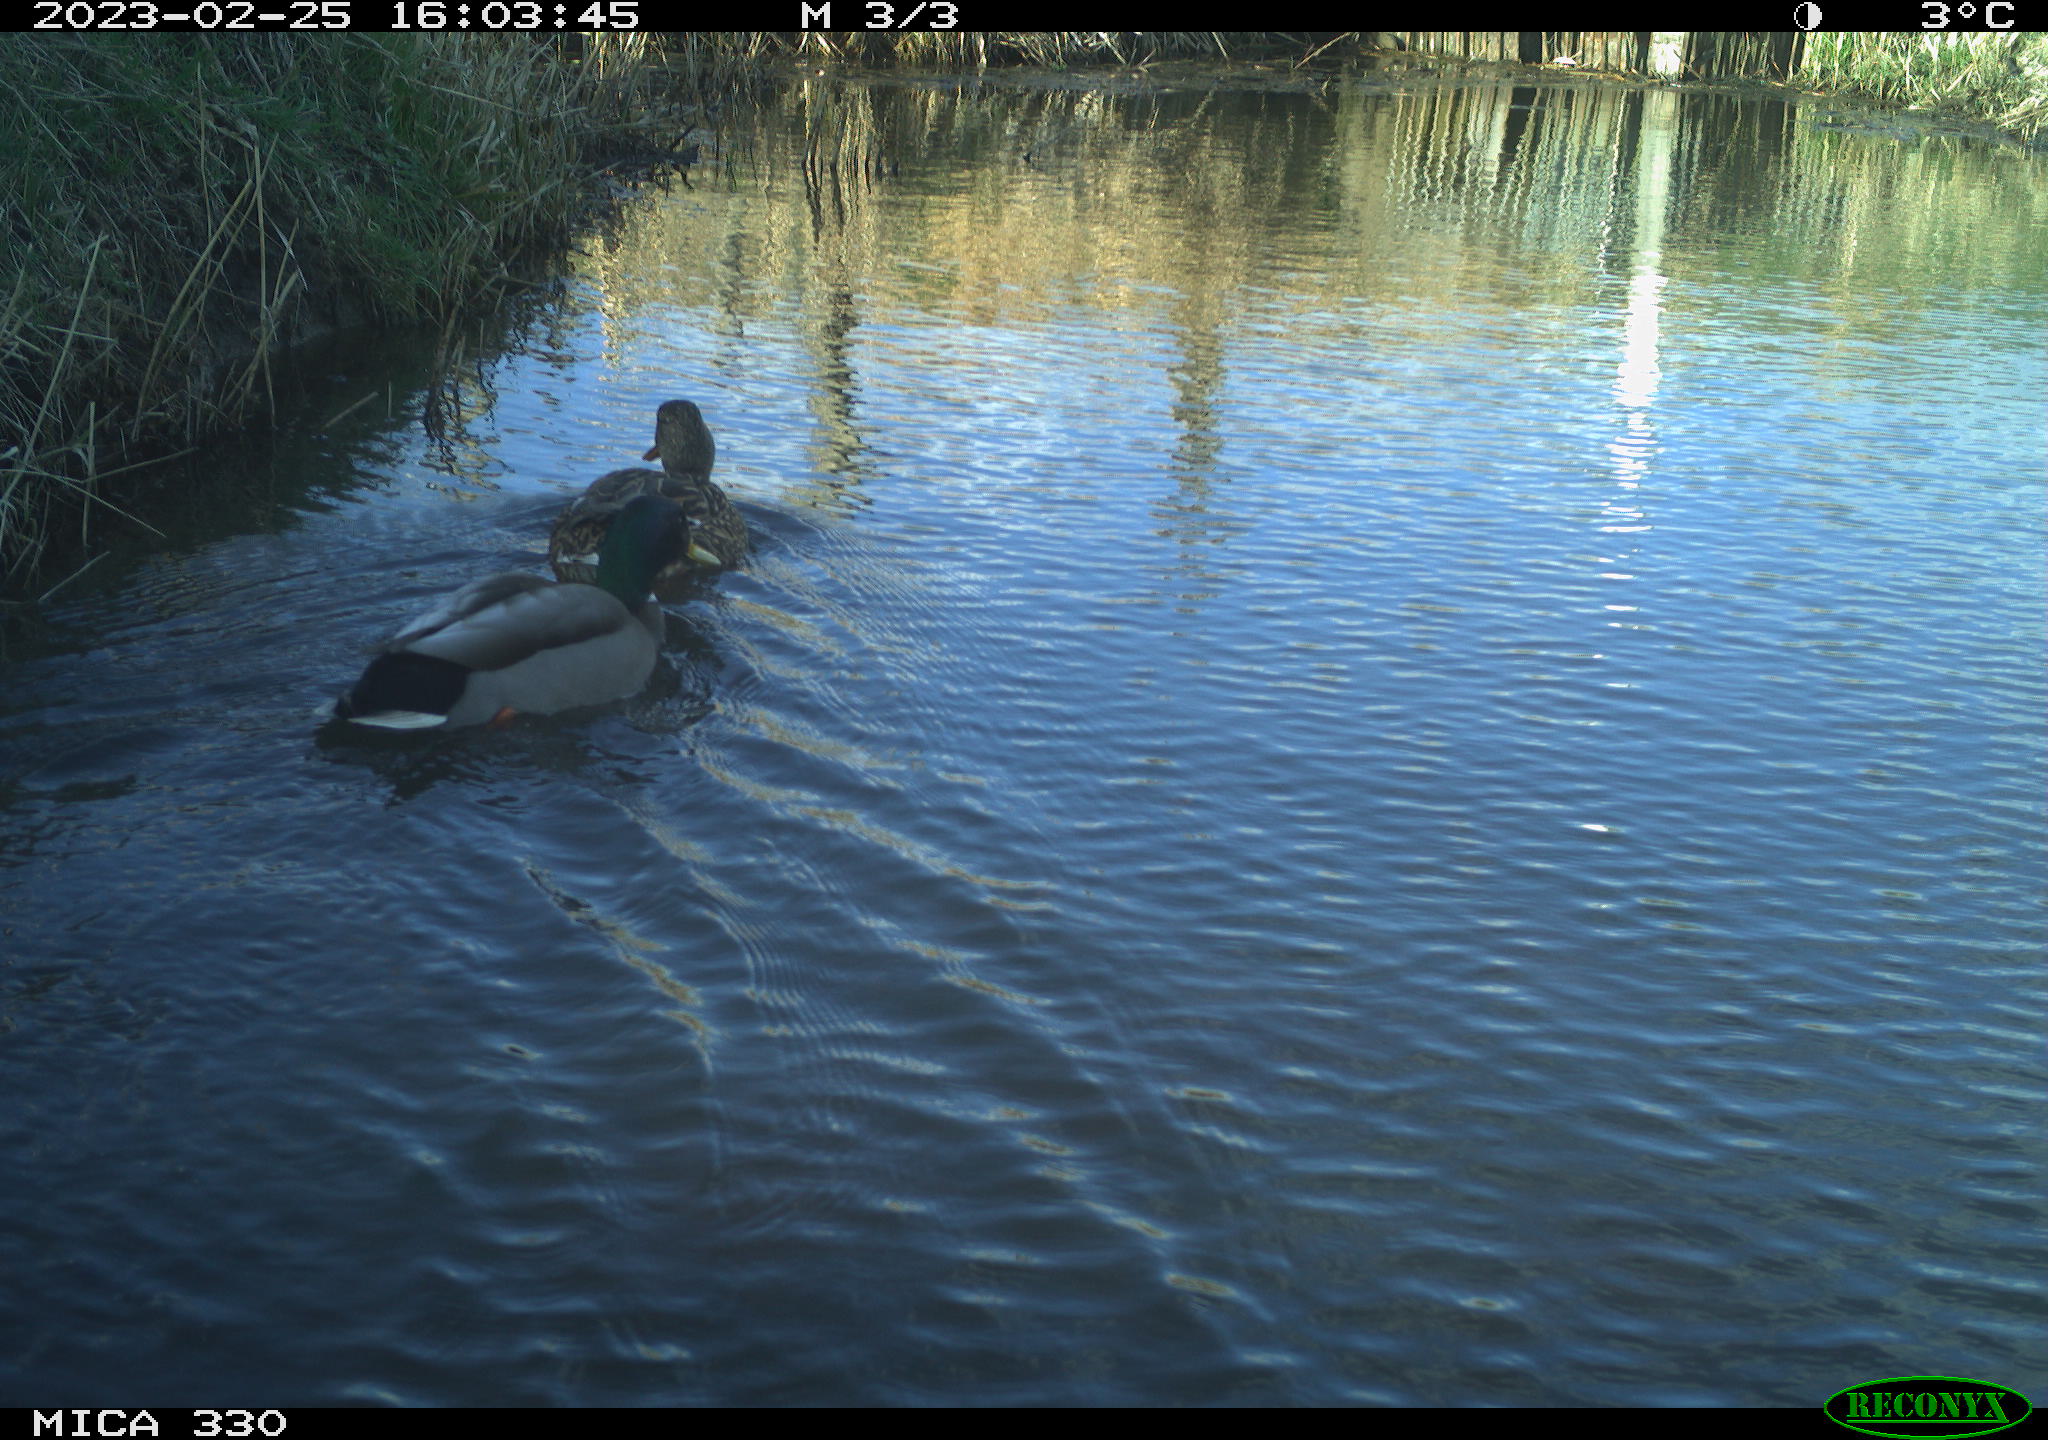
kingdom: Animalia
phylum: Chordata
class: Aves
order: Anseriformes
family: Anatidae
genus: Anas
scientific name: Anas
